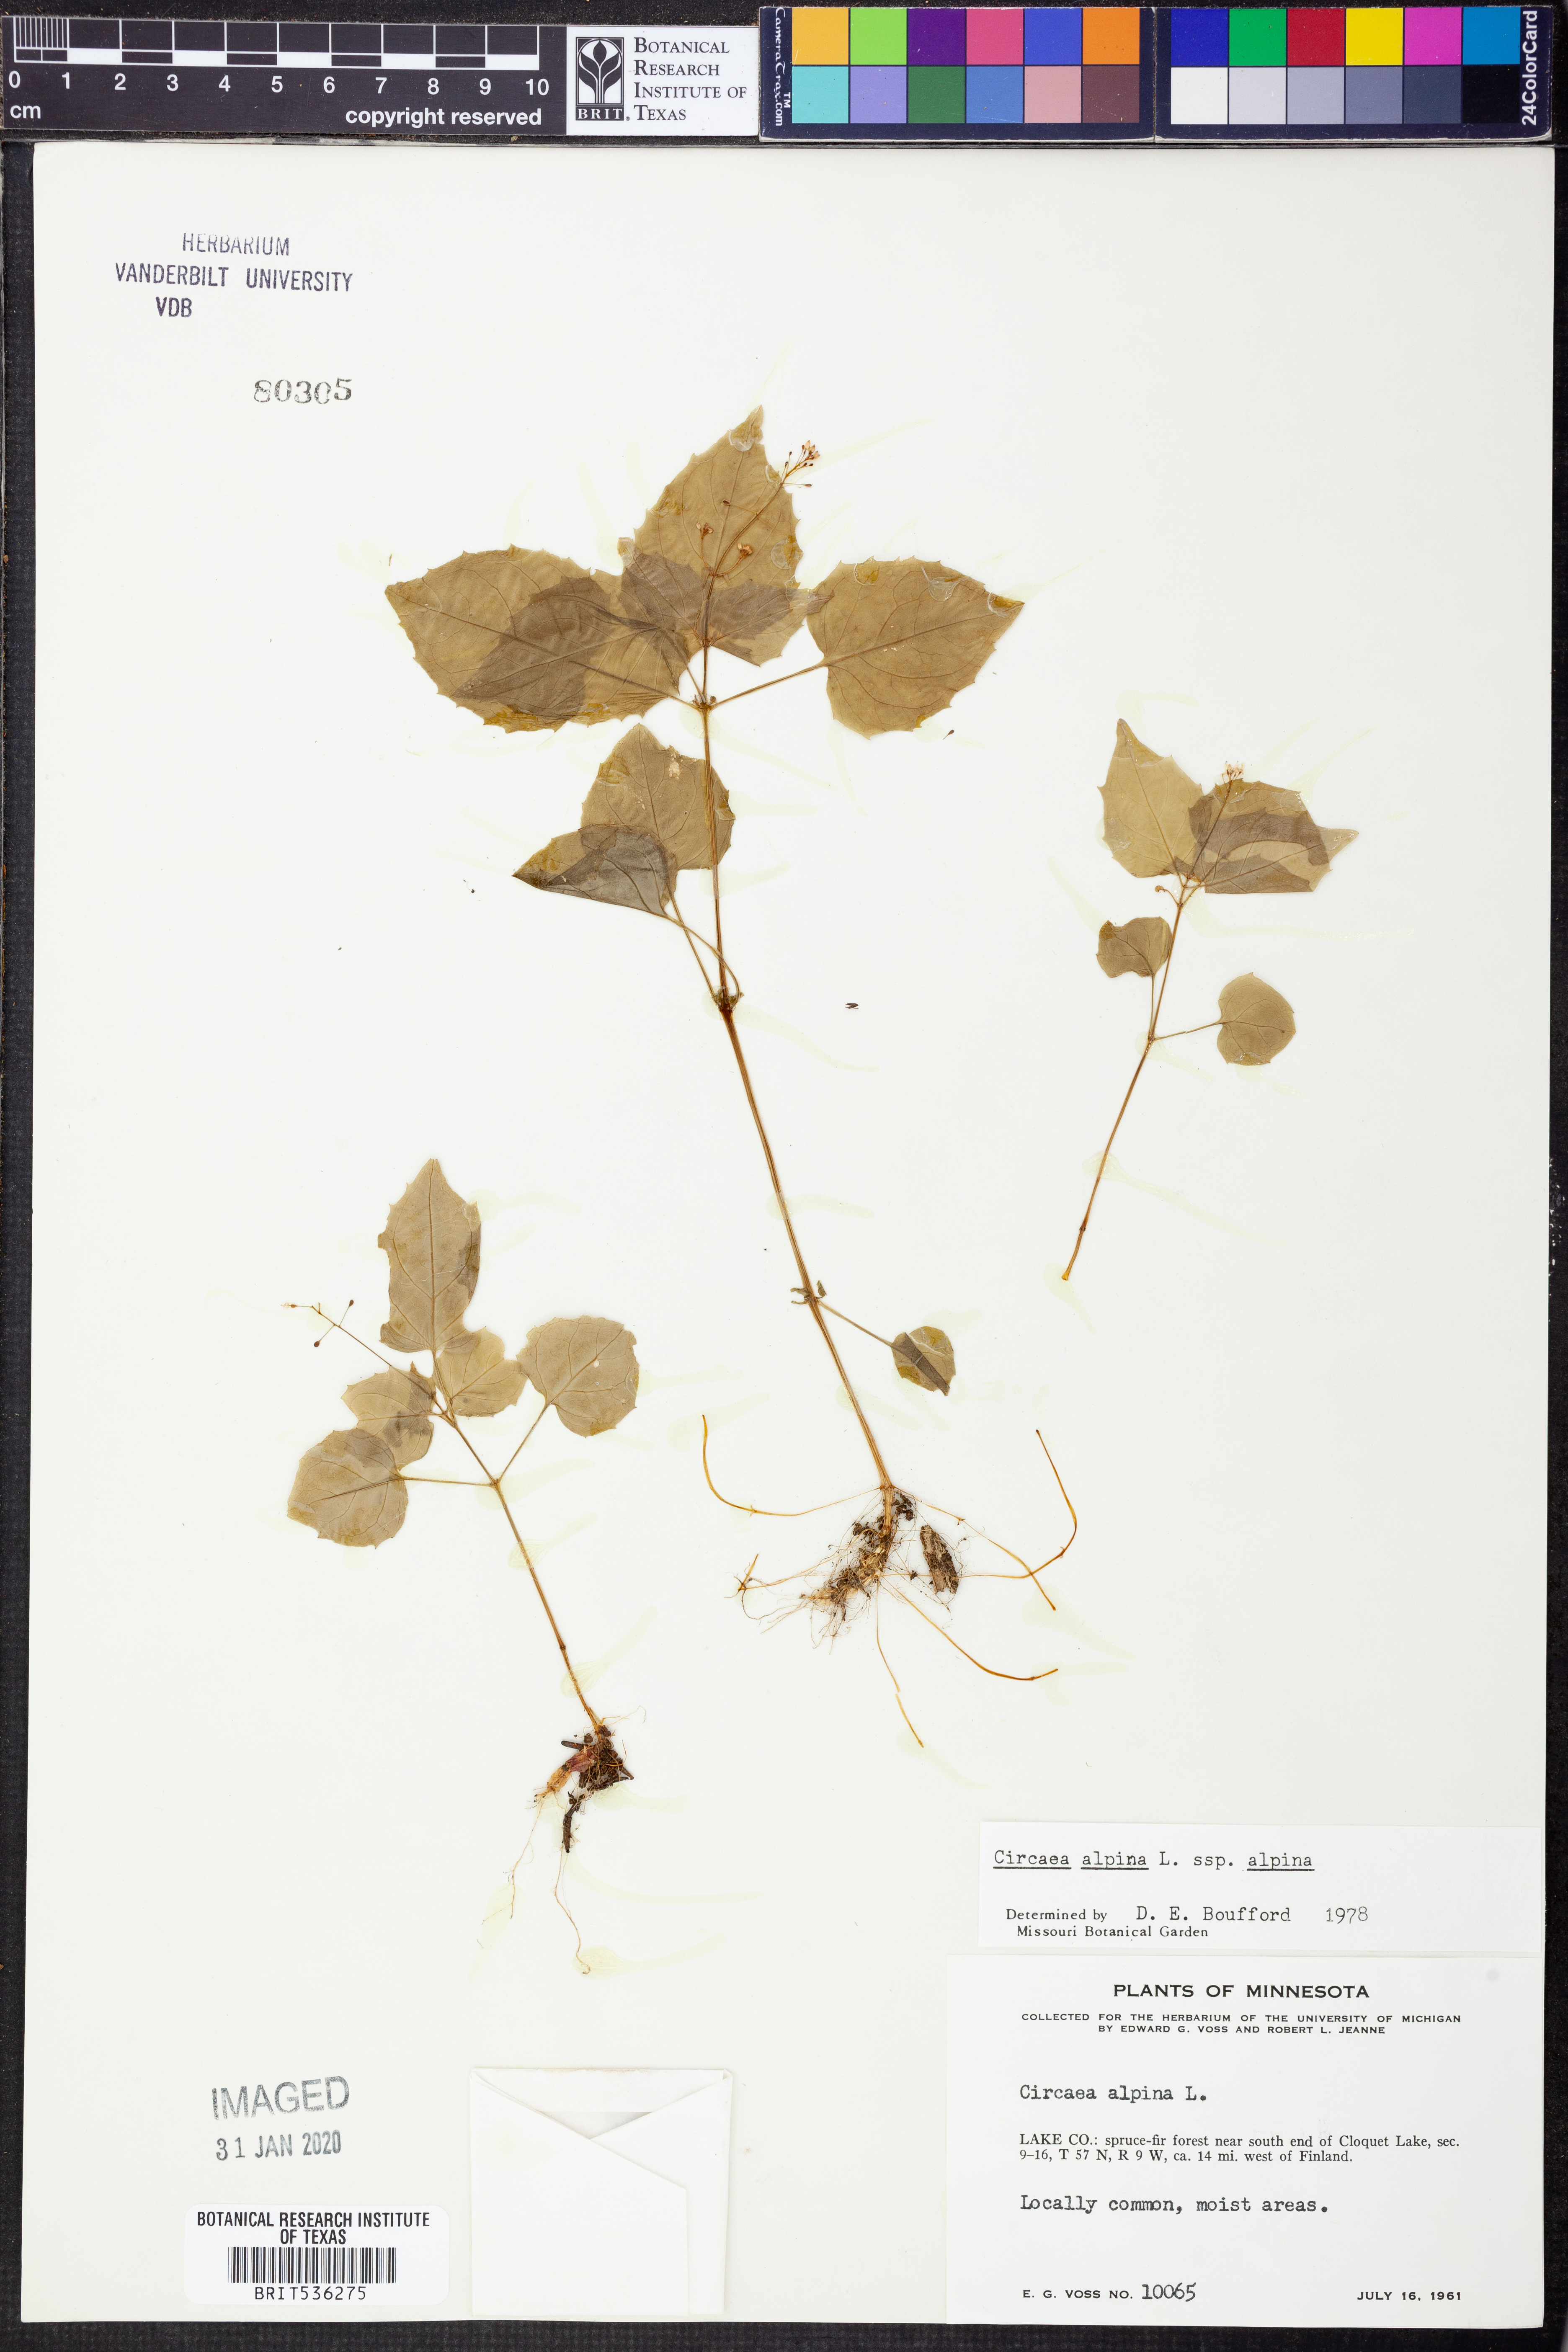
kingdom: Plantae
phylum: Tracheophyta
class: Magnoliopsida
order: Myrtales
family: Onagraceae
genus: Circaea
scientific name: Circaea alpina
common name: Alpine enchanter's-nightshade
